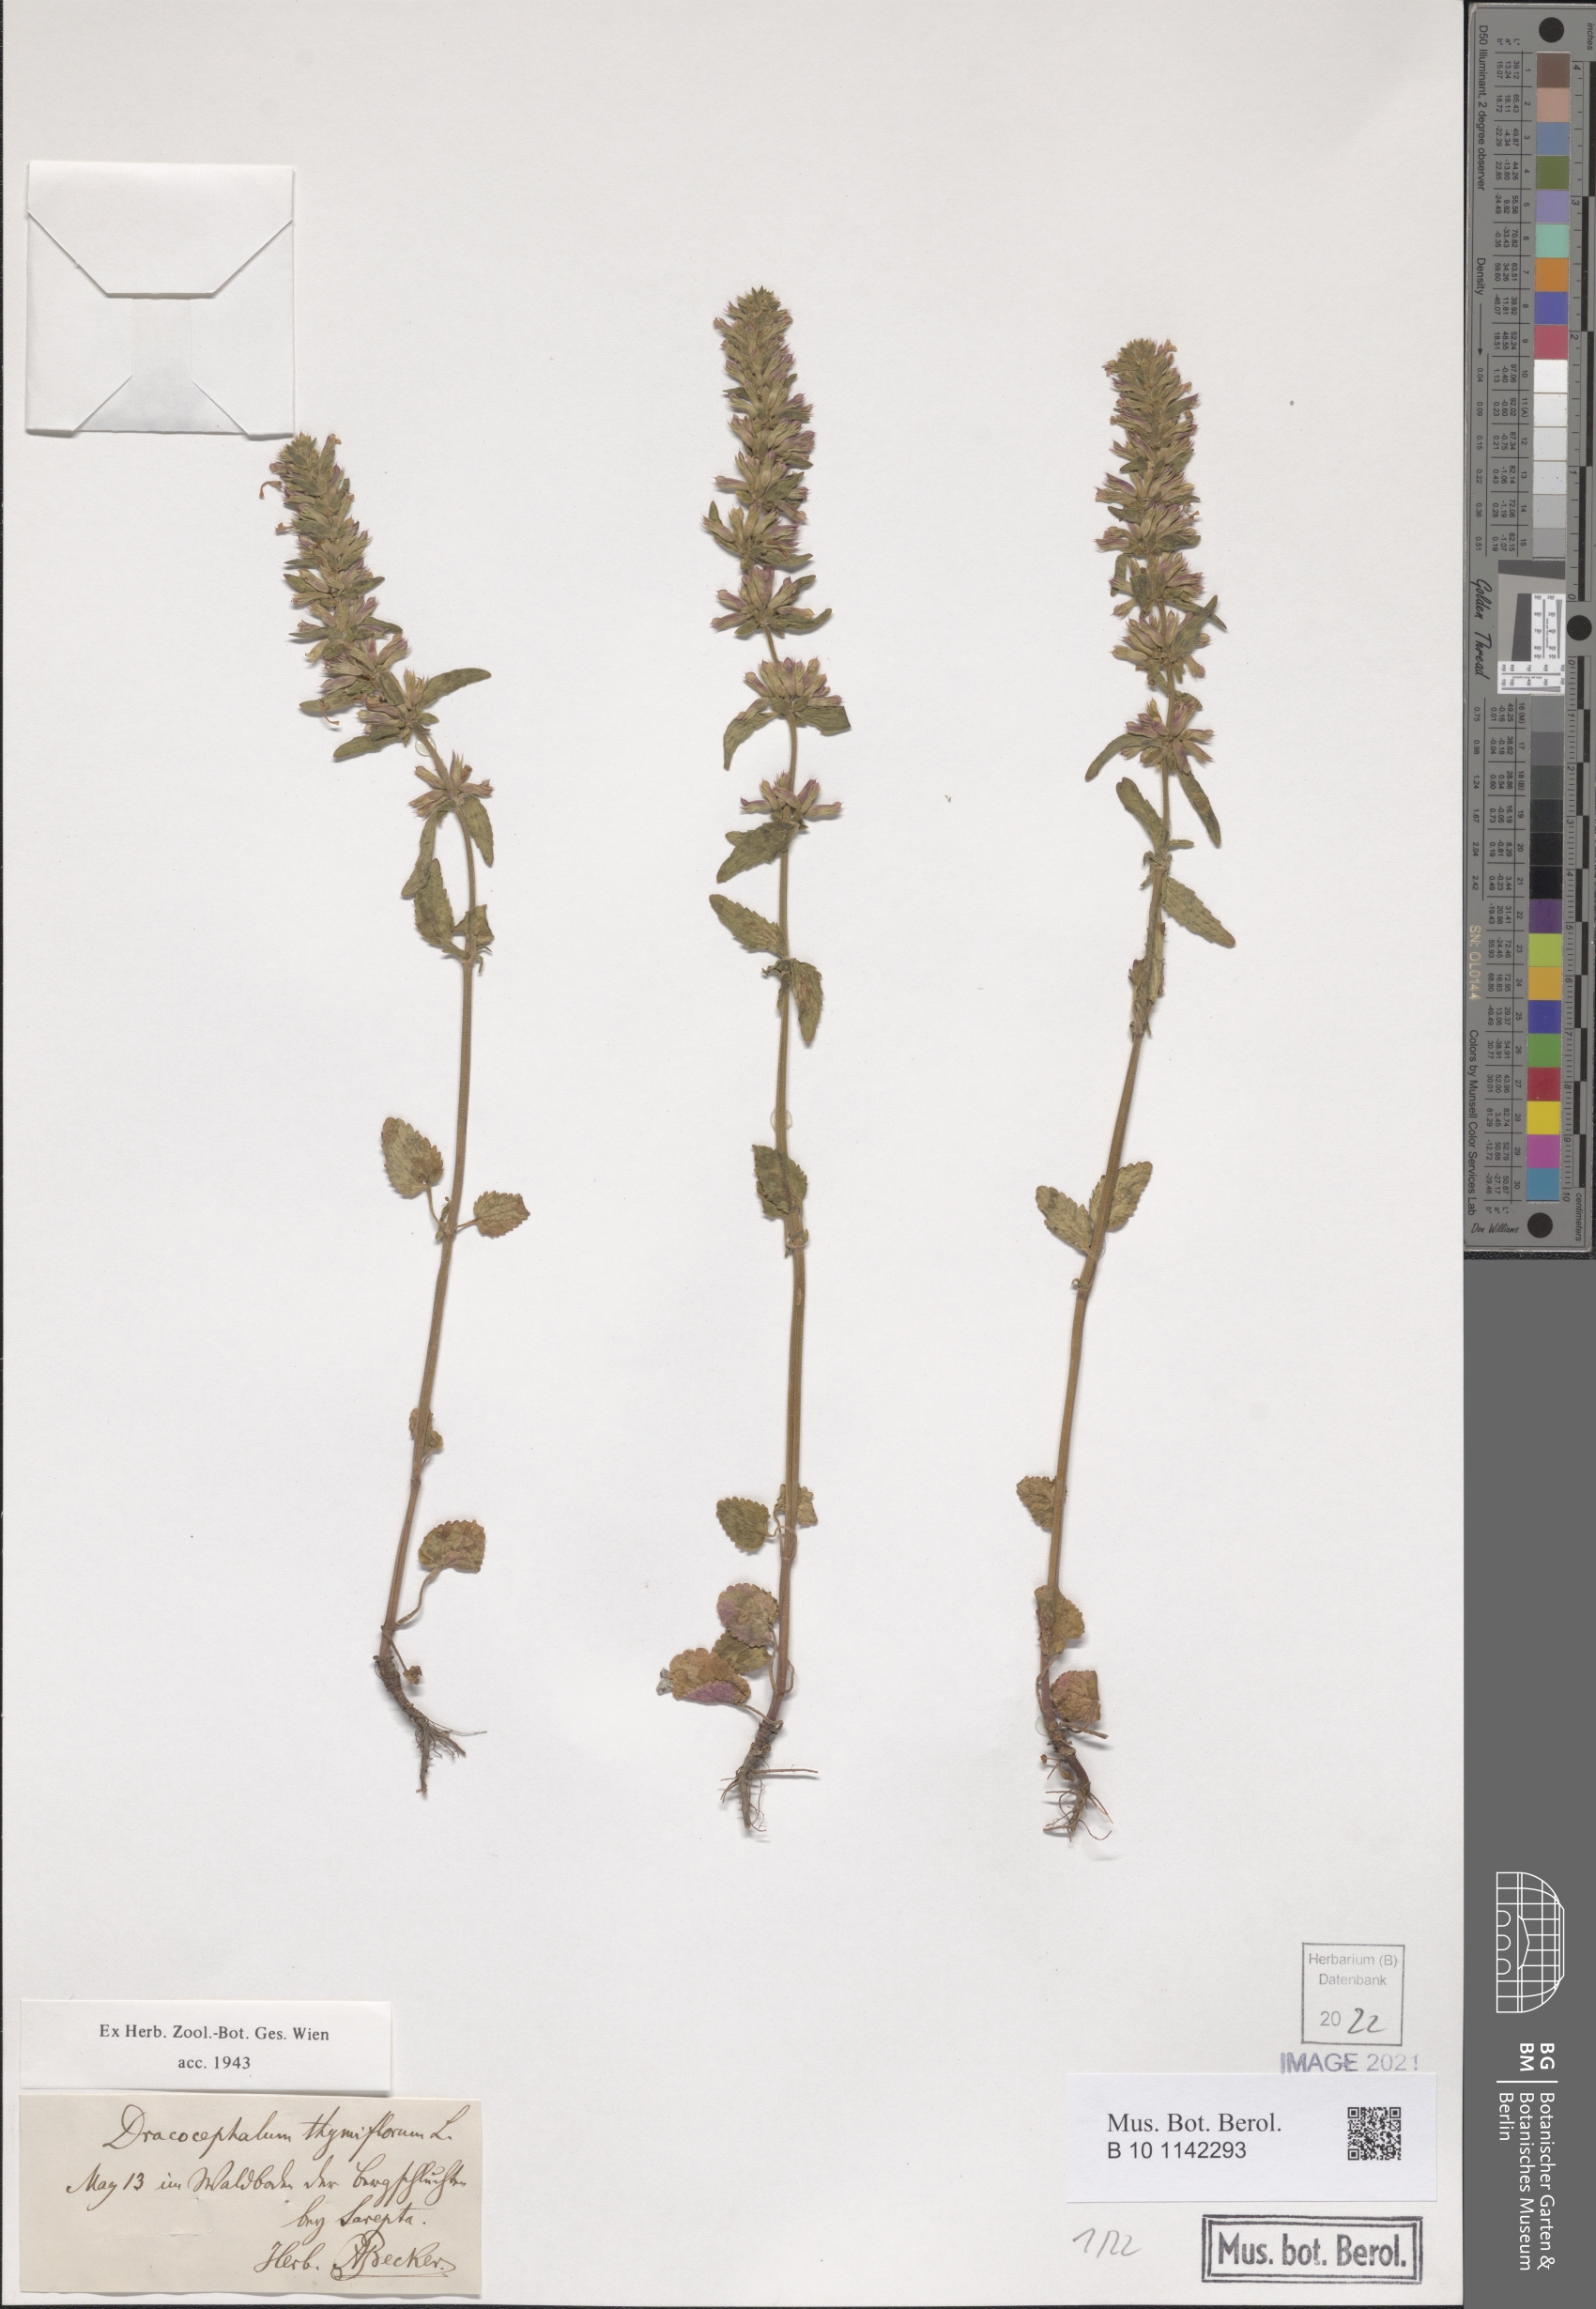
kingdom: Plantae
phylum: Tracheophyta
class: Magnoliopsida
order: Lamiales
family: Lamiaceae
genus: Dracocephalum
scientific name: Dracocephalum thymiflorum
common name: Thymeleaf dragonhead
